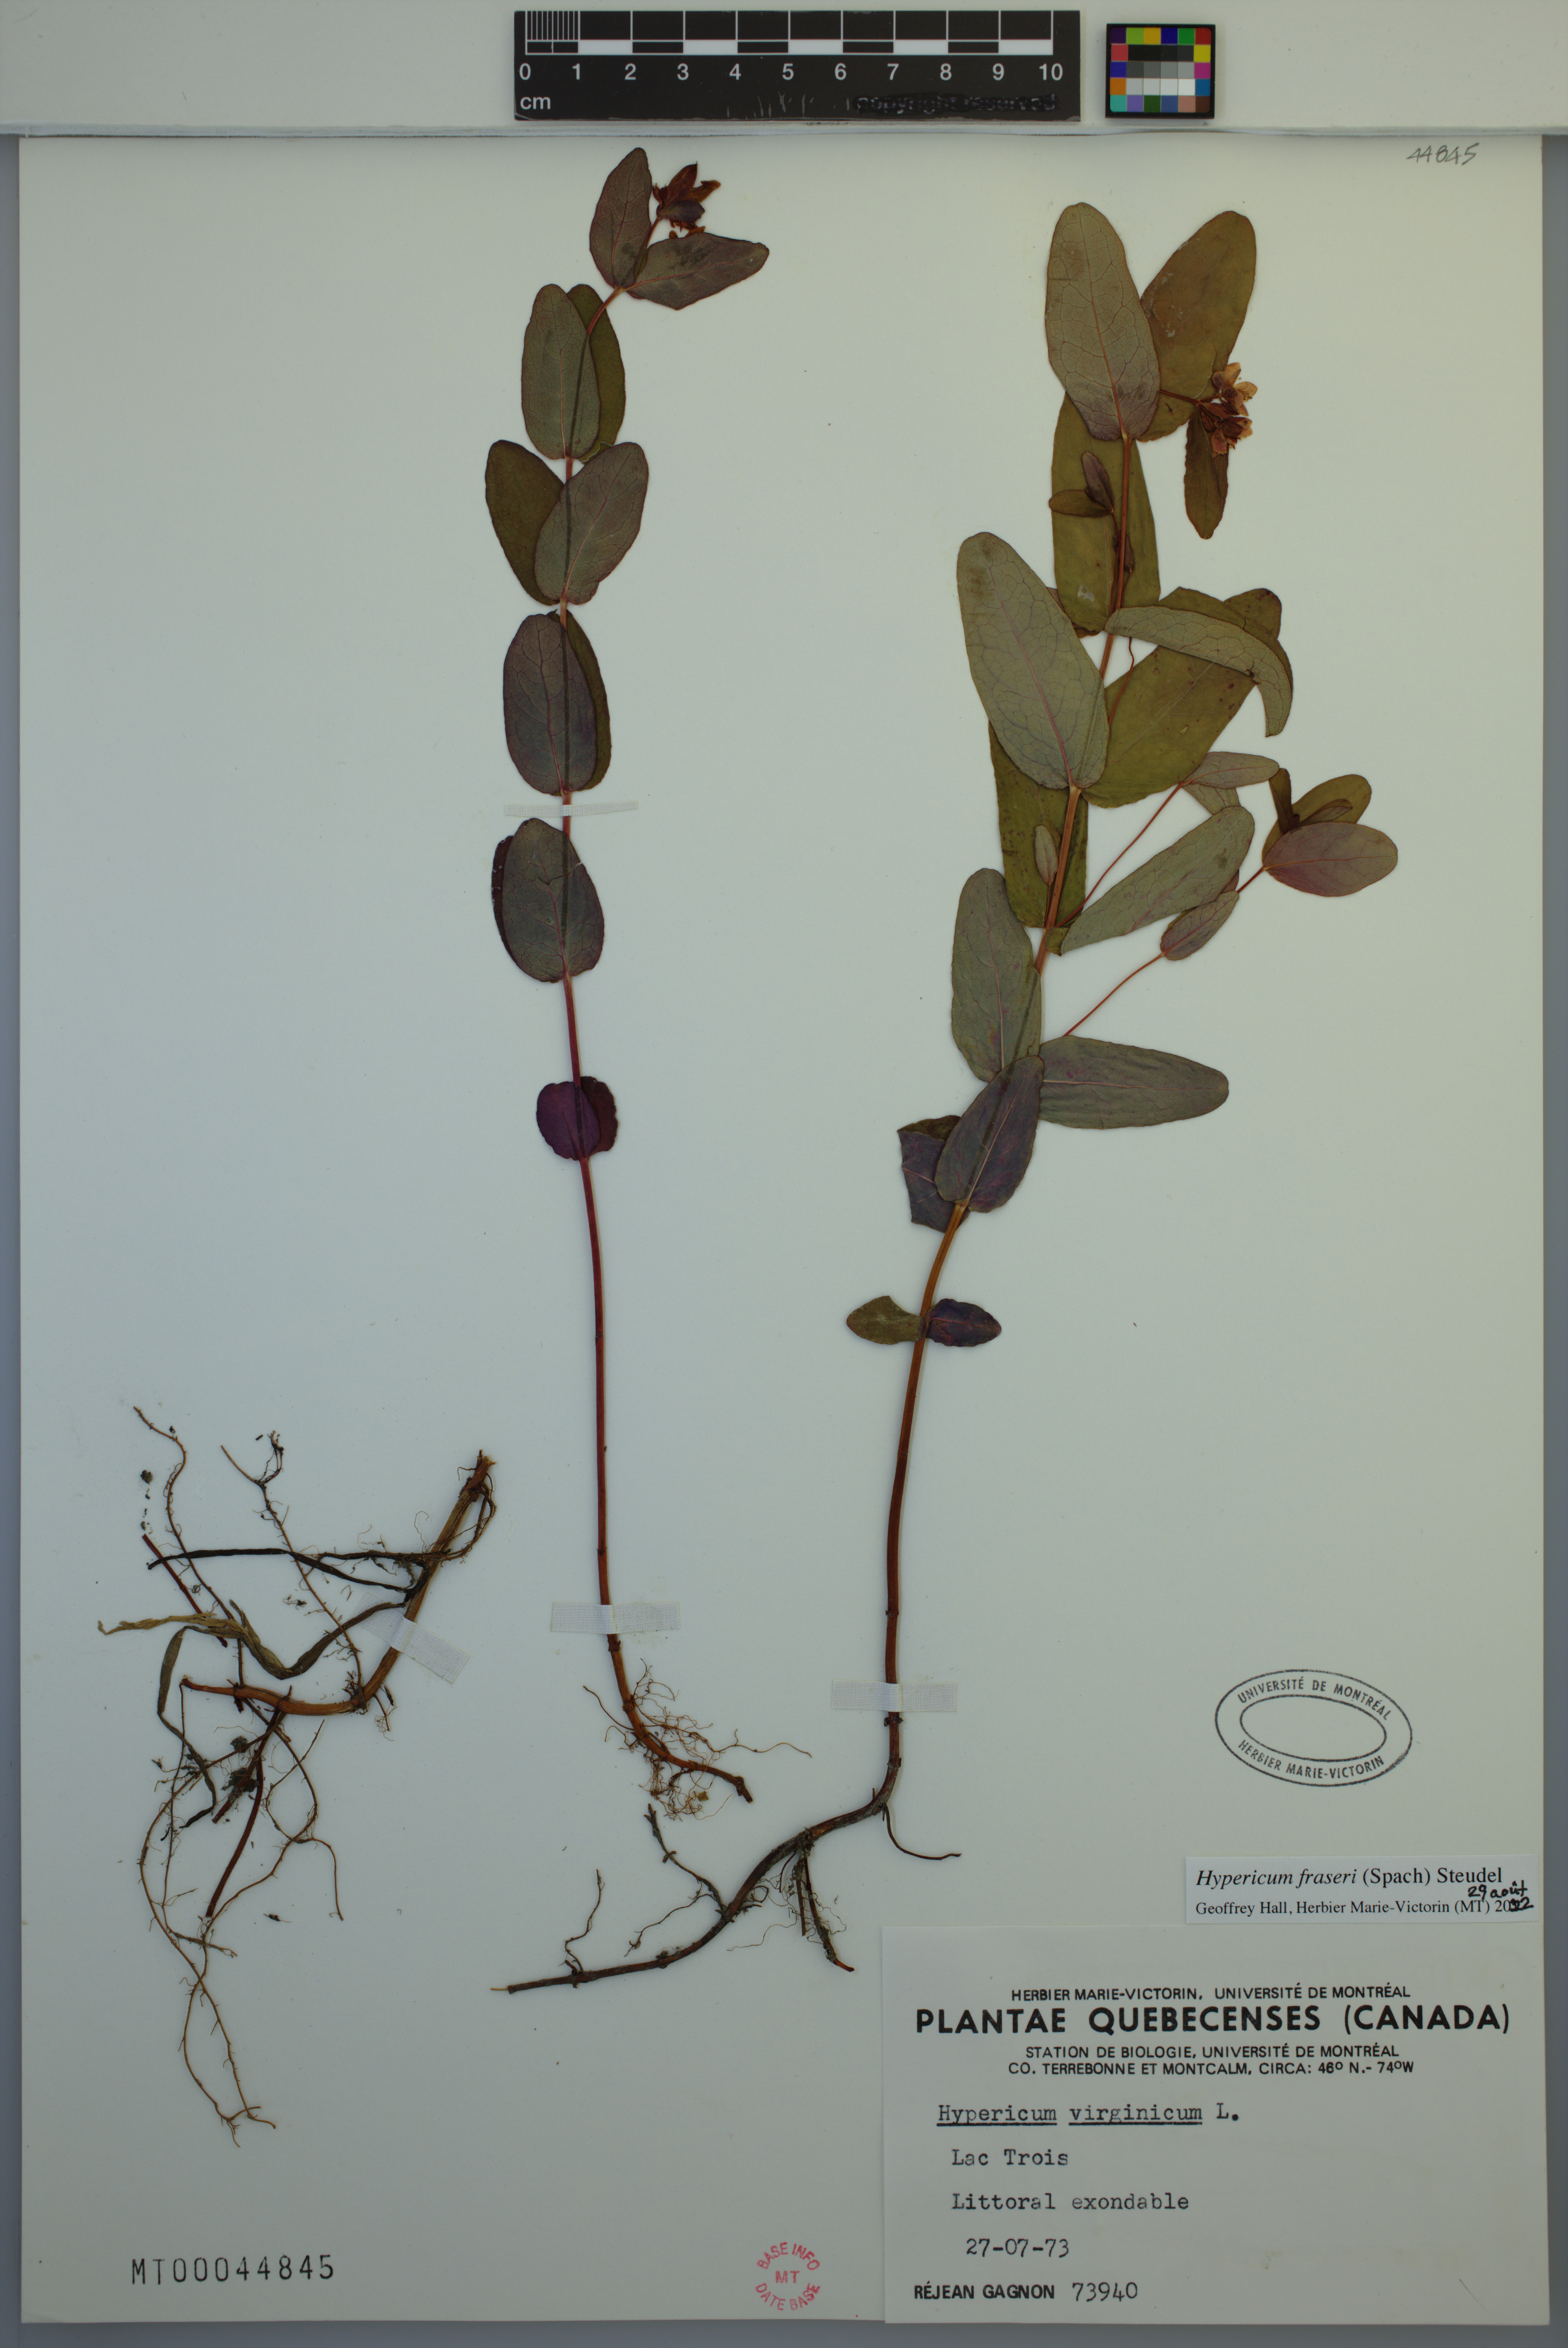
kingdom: Plantae
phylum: Tracheophyta
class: Magnoliopsida
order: Malpighiales
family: Hypericaceae
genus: Triadenum
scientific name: Triadenum fraseri
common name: Fraser's marsh st. johnswort
